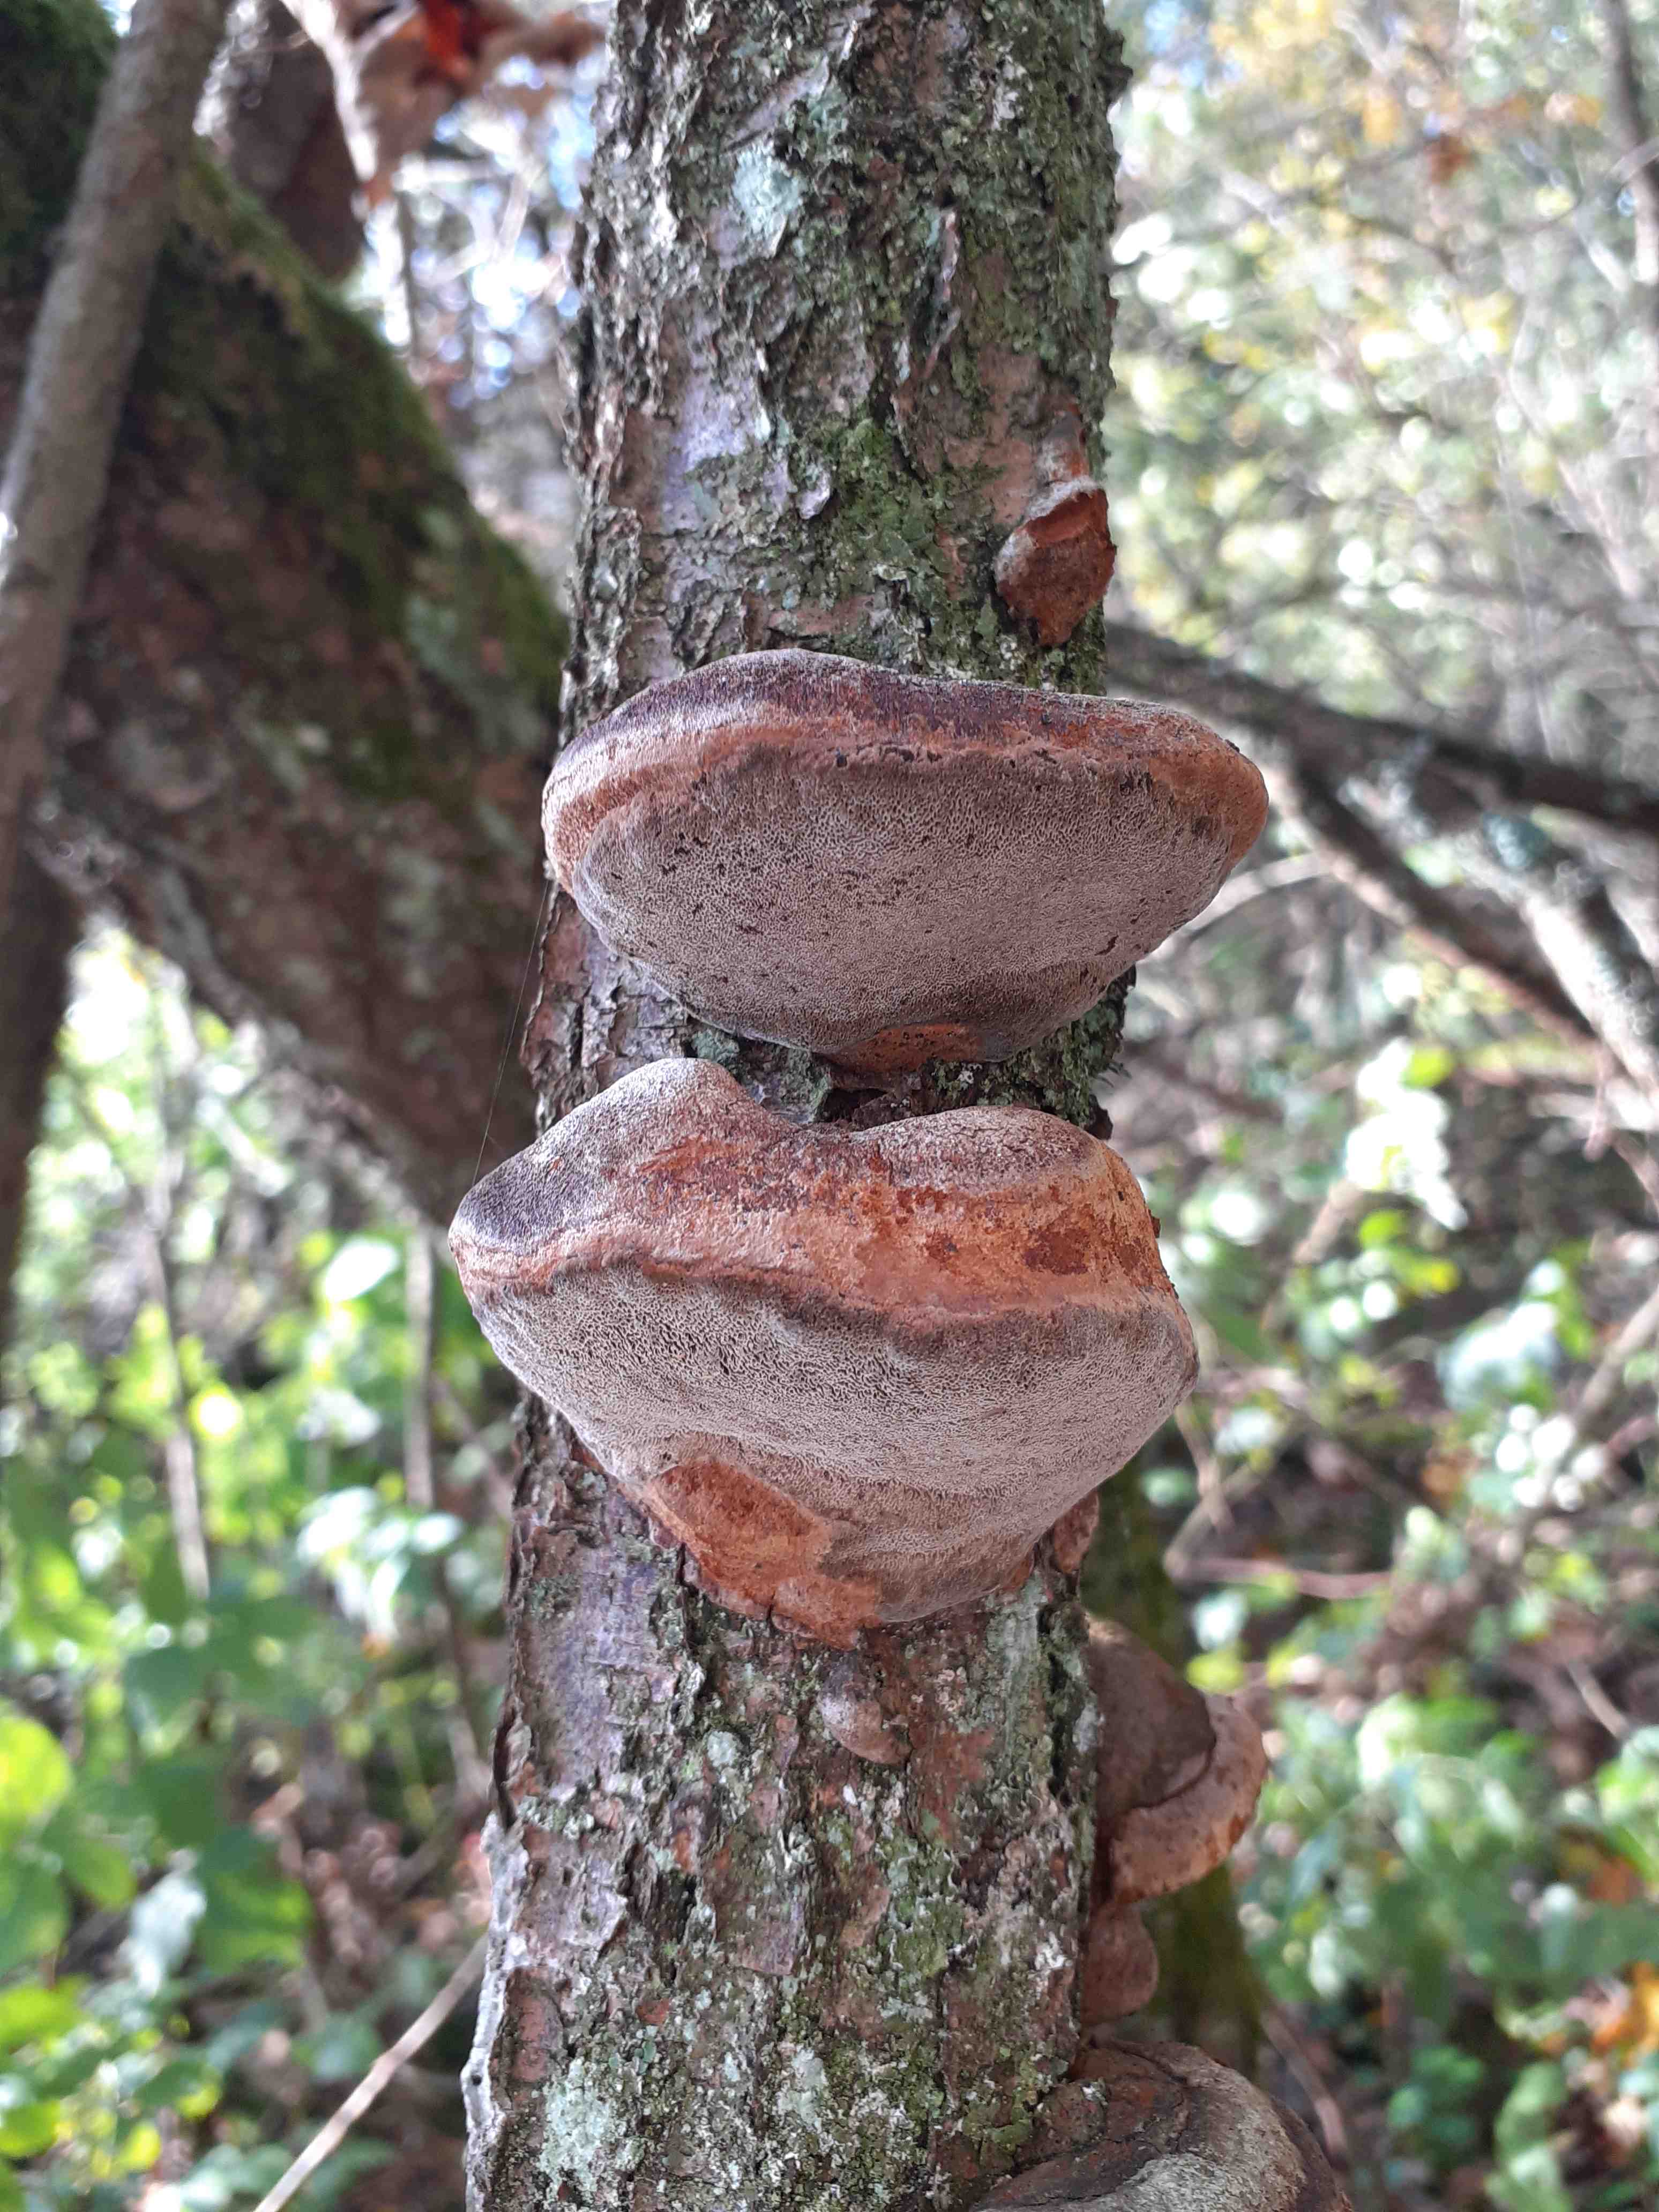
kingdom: Fungi
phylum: Basidiomycota
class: Agaricomycetes
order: Hymenochaetales
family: Hymenochaetaceae
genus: Phellinus
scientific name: Phellinus pomaceus
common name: blomme-ildporesvamp
